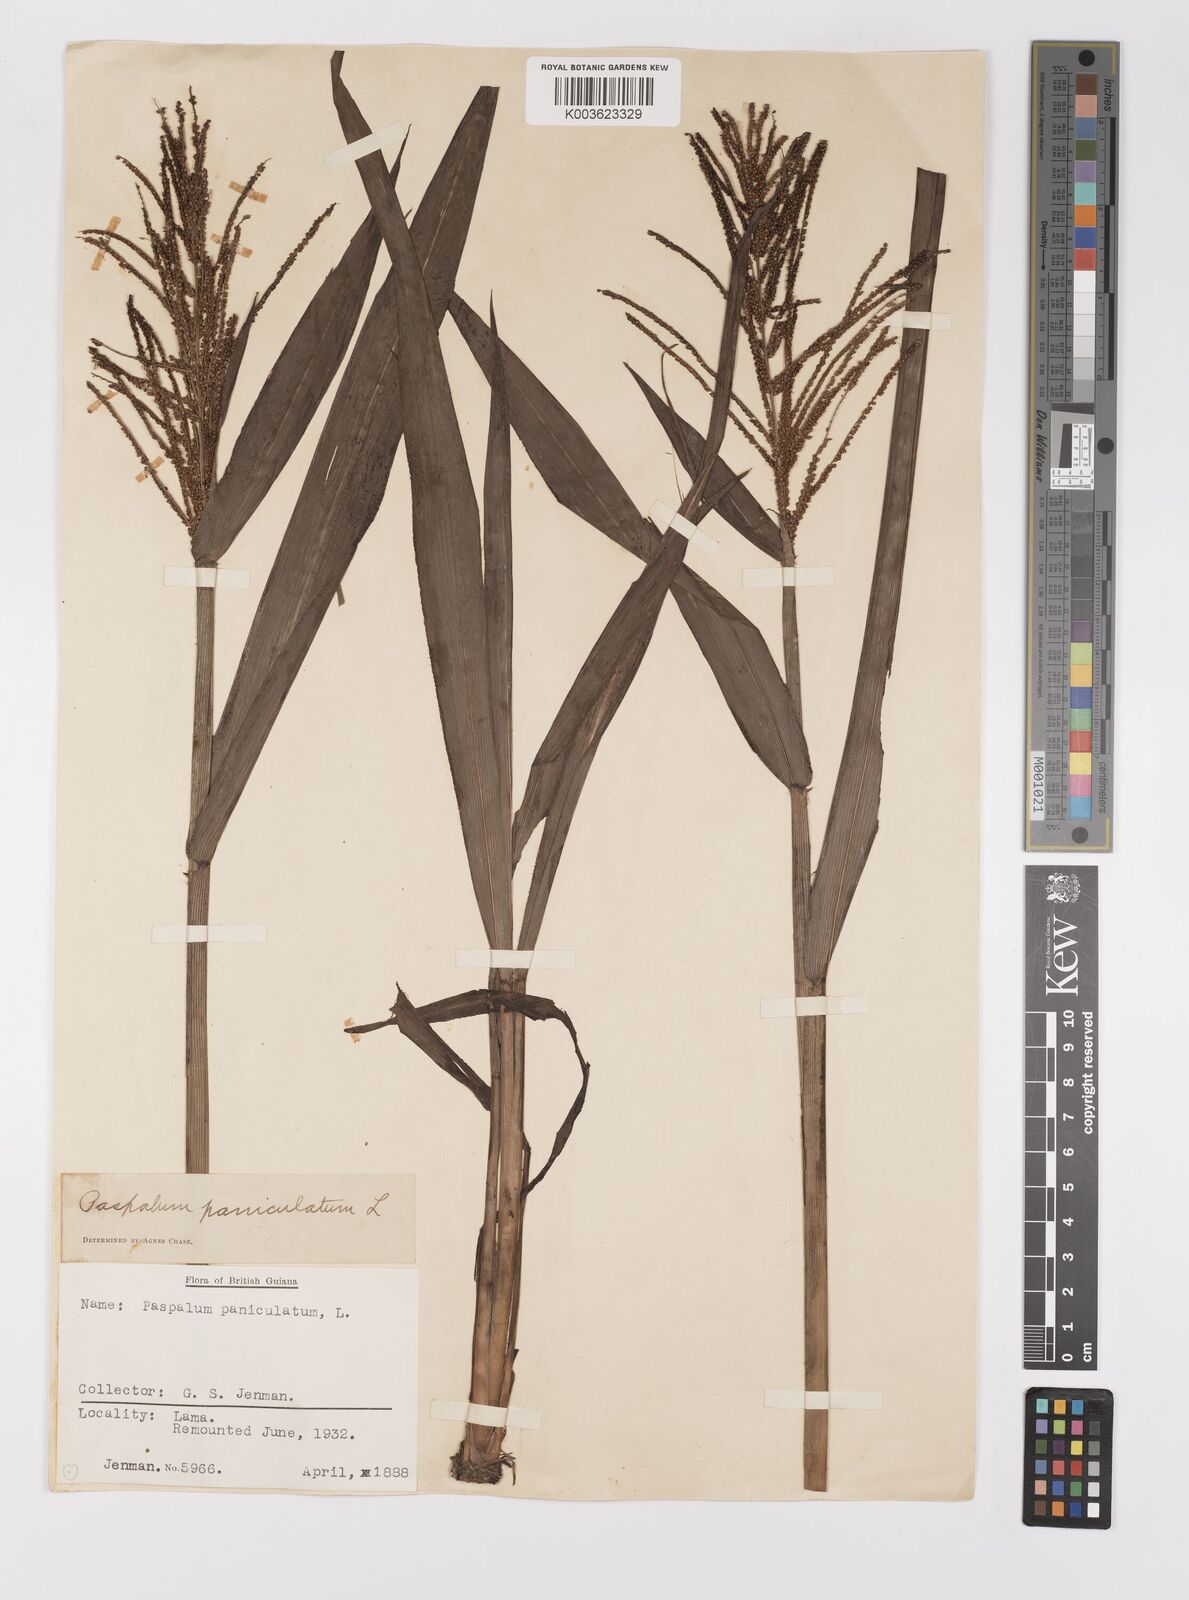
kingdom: Plantae
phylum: Tracheophyta
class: Liliopsida
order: Poales
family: Poaceae
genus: Paspalum
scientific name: Paspalum paniculatum
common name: Arrocillo
